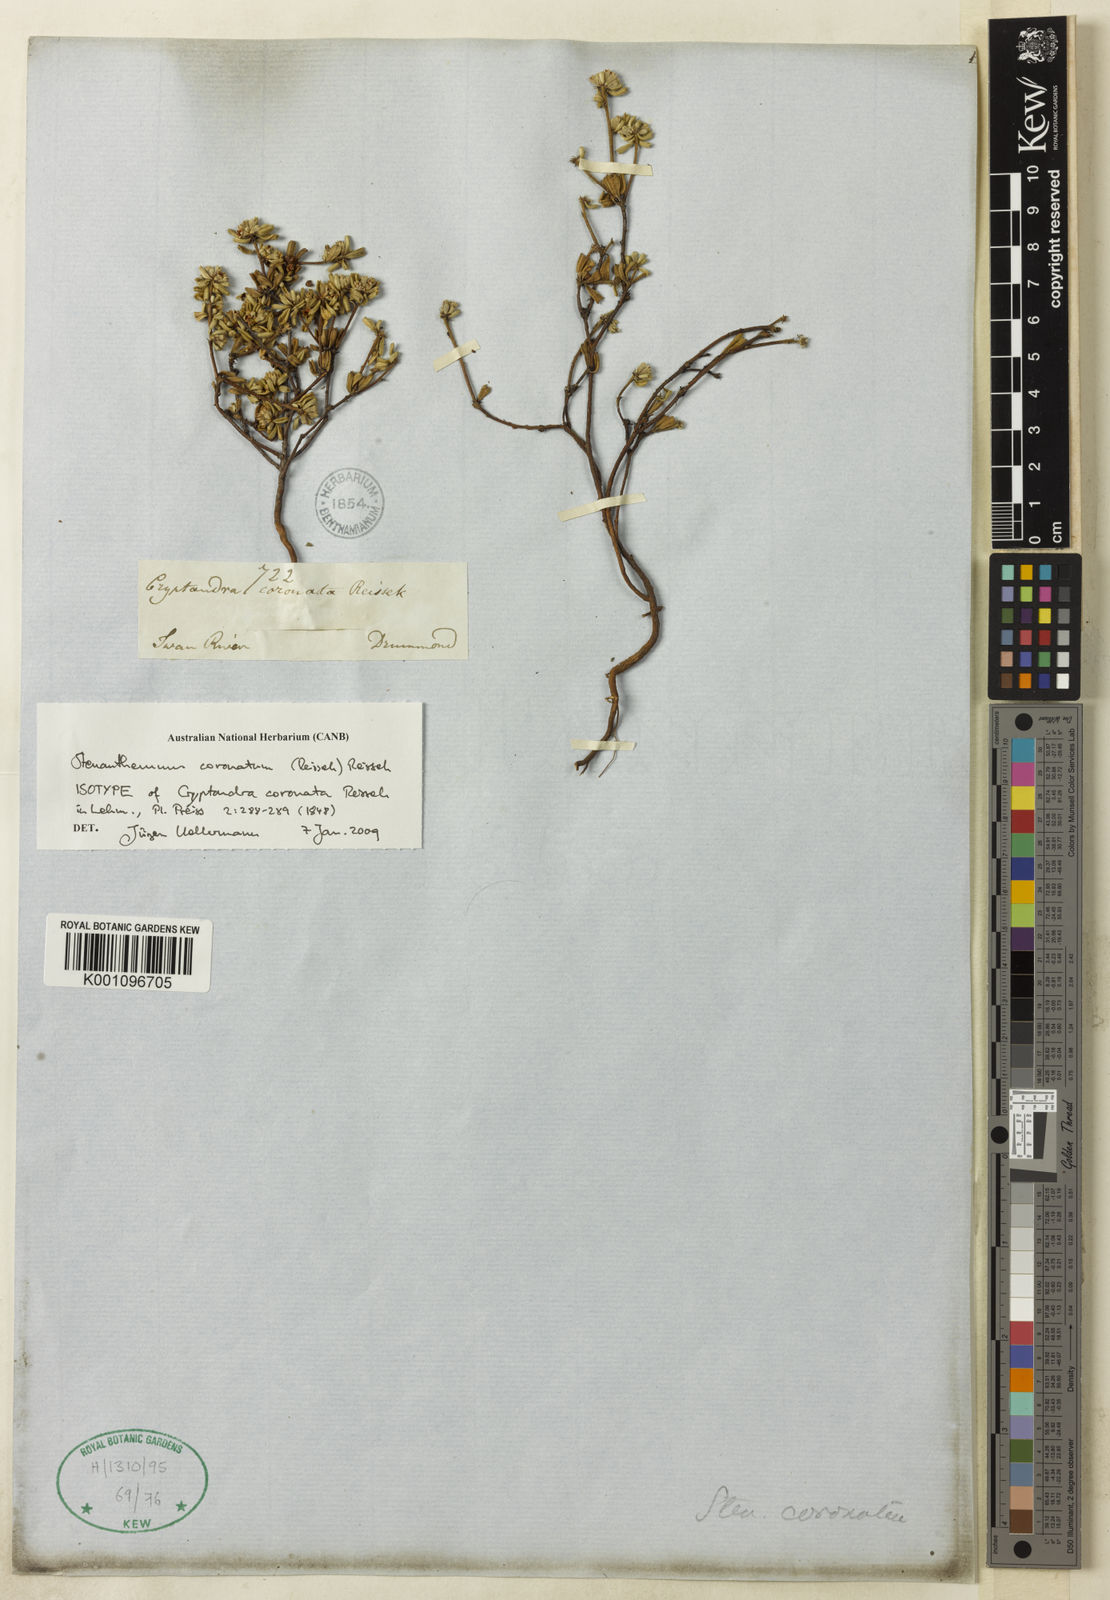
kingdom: Plantae
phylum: Tracheophyta
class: Magnoliopsida
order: Rosales
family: Rhamnaceae
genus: Cryptandra
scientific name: Cryptandra coronata
